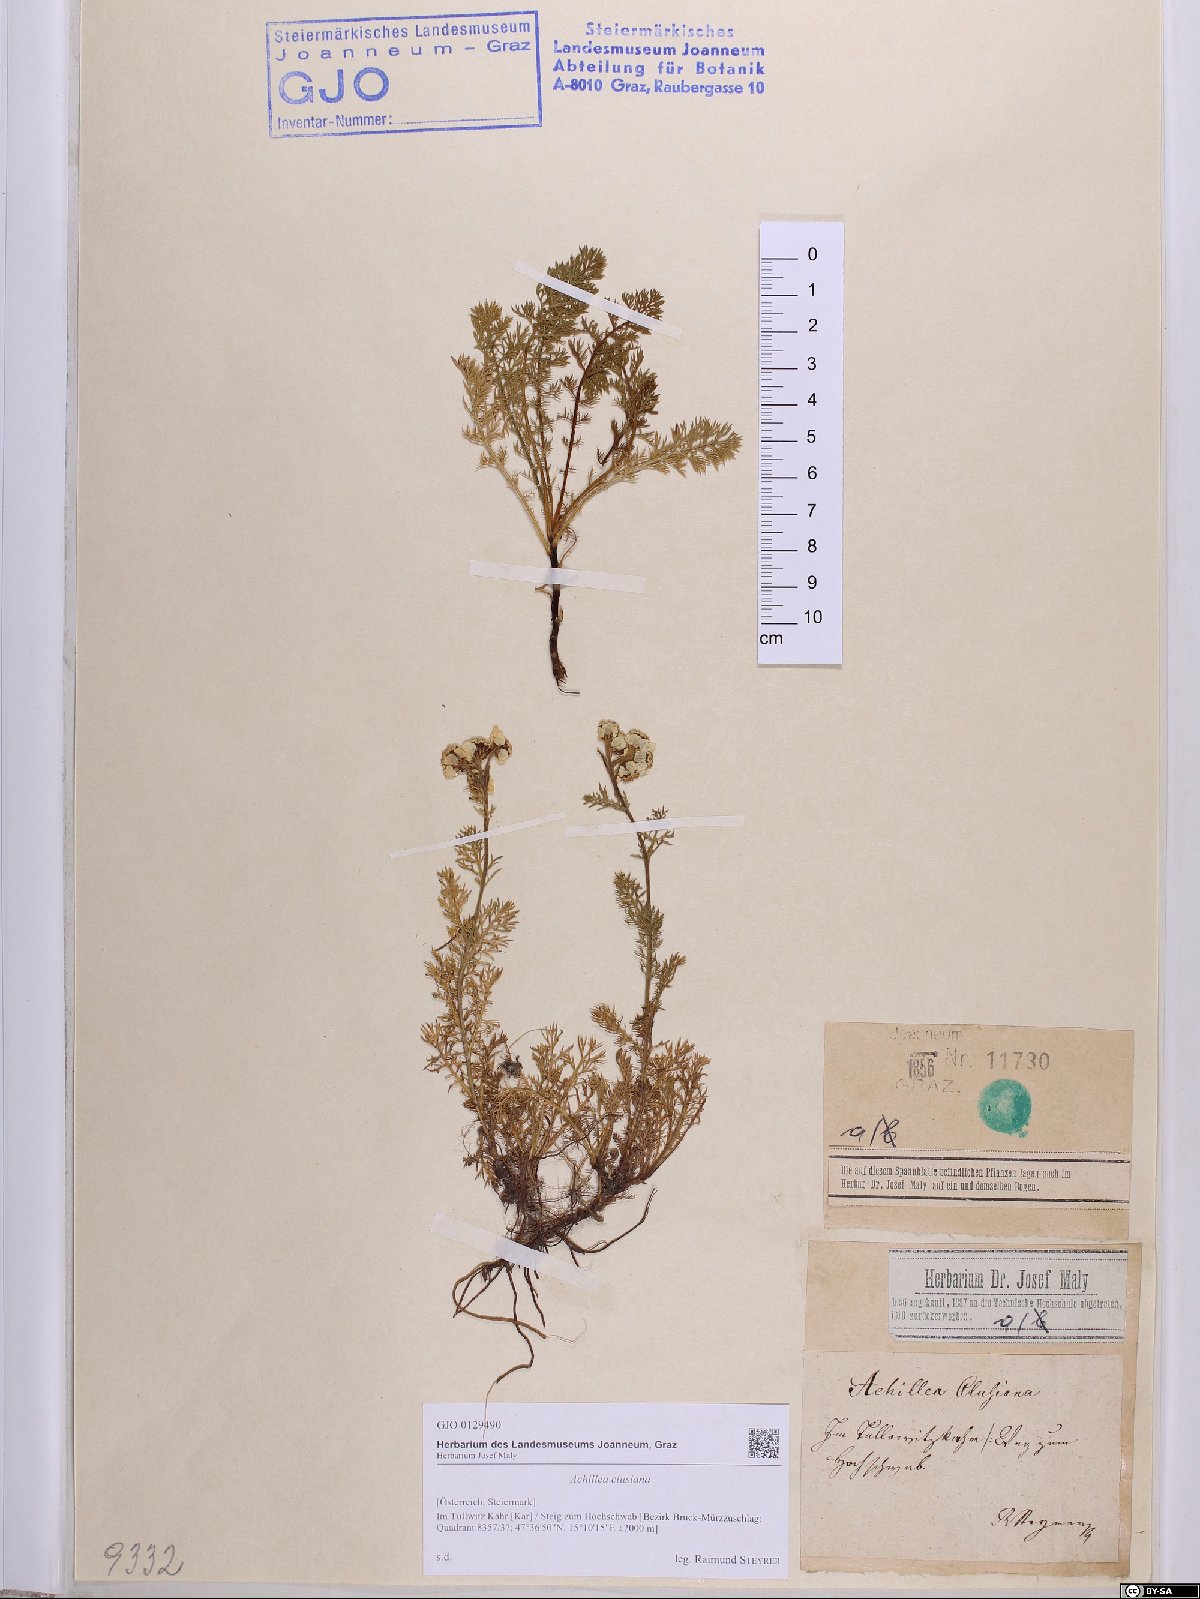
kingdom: Plantae
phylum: Tracheophyta
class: Magnoliopsida
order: Asterales
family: Asteraceae
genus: Achillea
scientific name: Achillea clusiana
